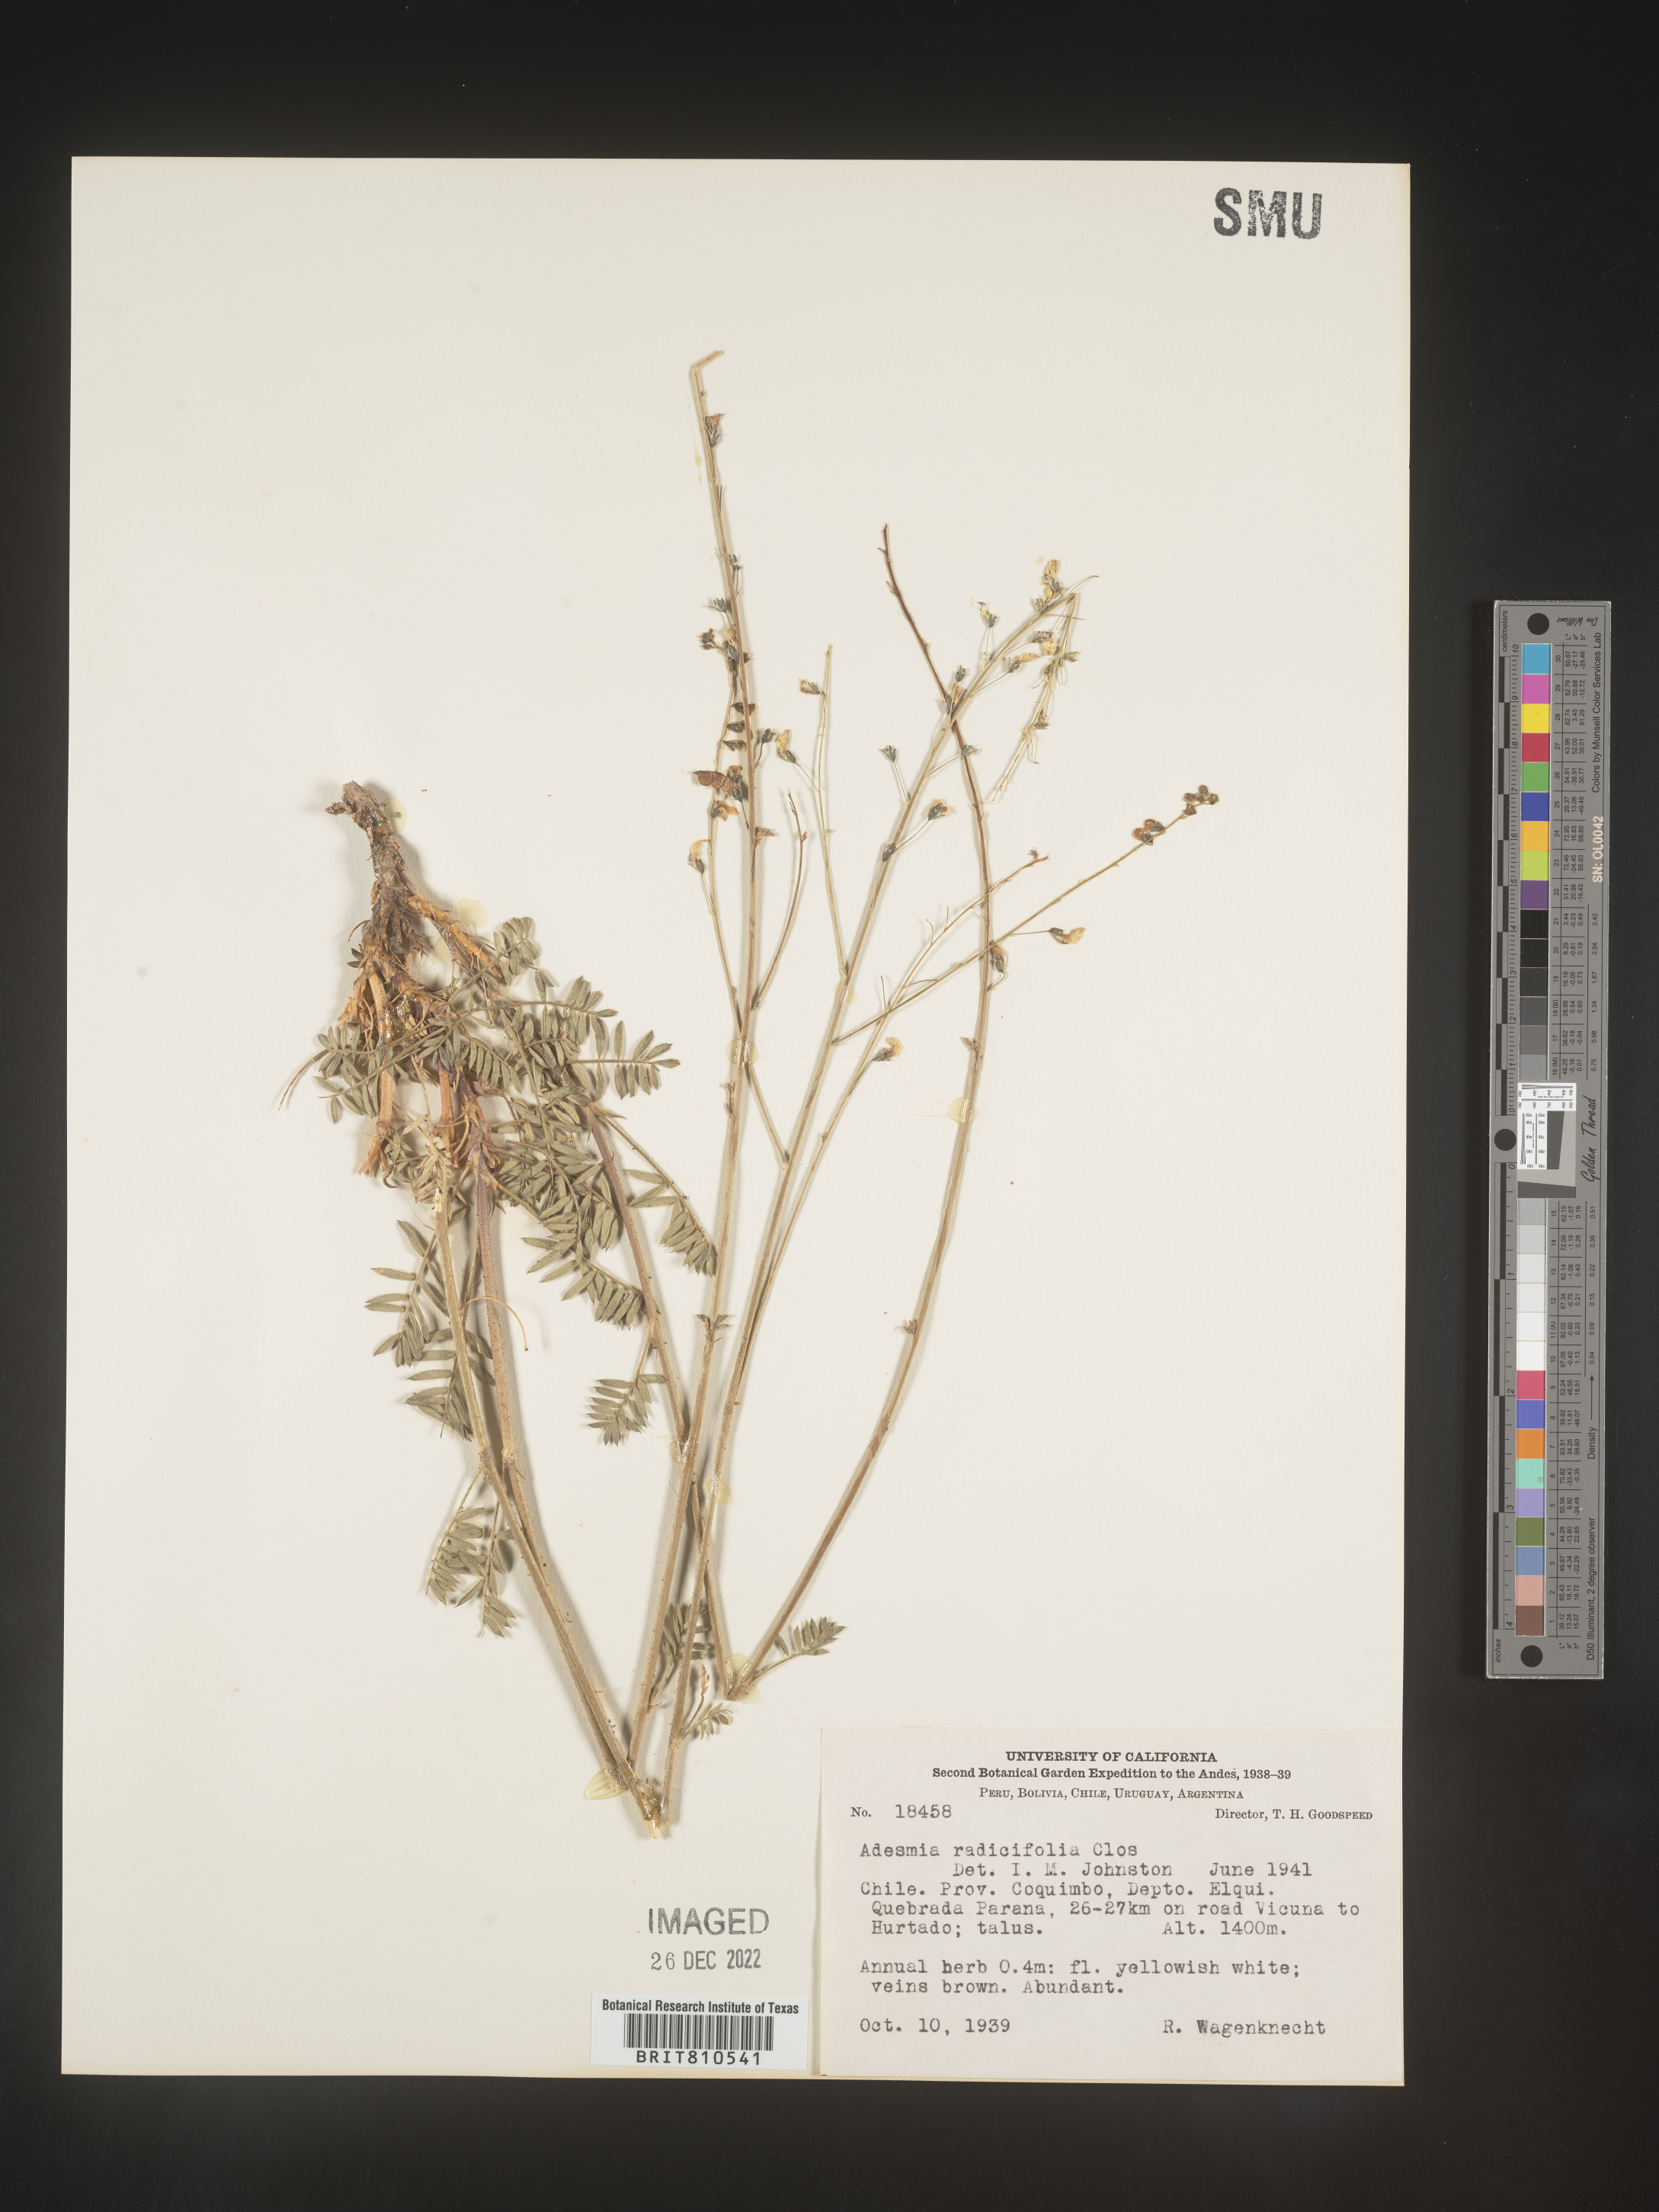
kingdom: Plantae
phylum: Tracheophyta
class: Magnoliopsida
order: Fabales
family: Fabaceae
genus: Adesmia
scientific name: Adesmia
